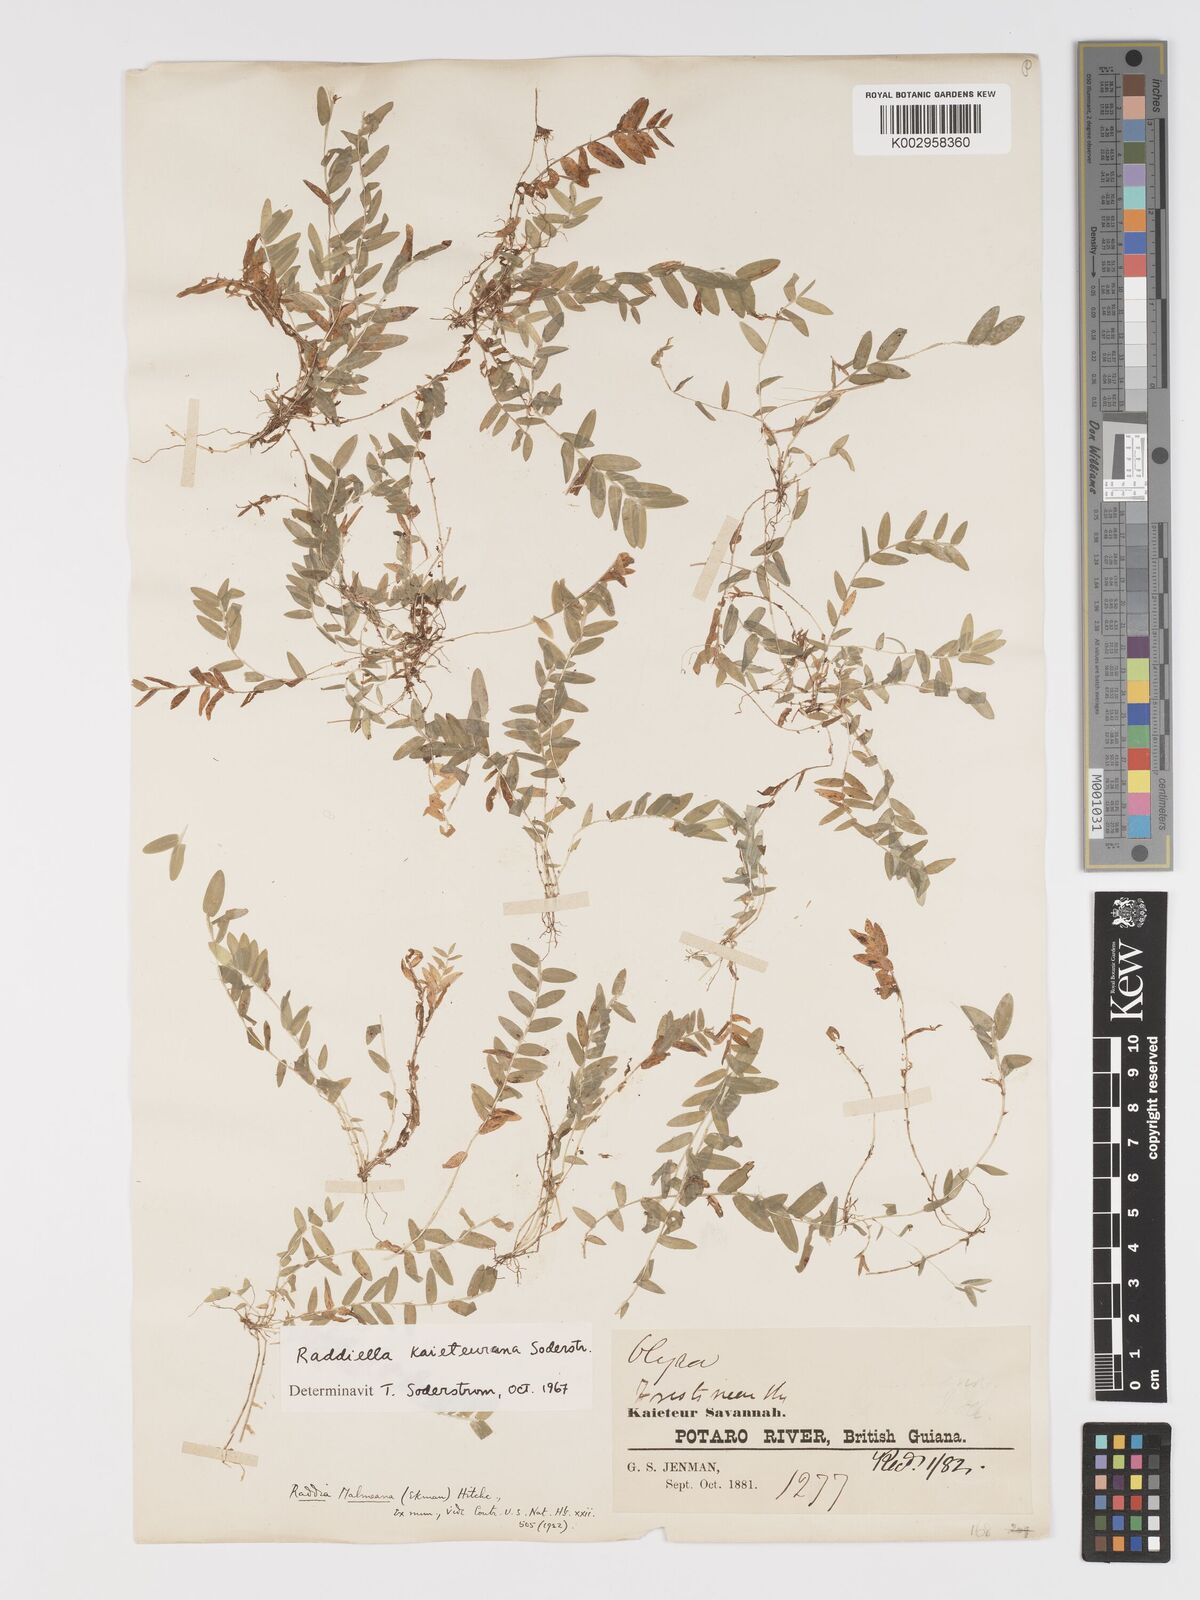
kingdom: Plantae
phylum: Tracheophyta
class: Liliopsida
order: Poales
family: Poaceae
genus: Raddiella
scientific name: Raddiella kaieteurana
